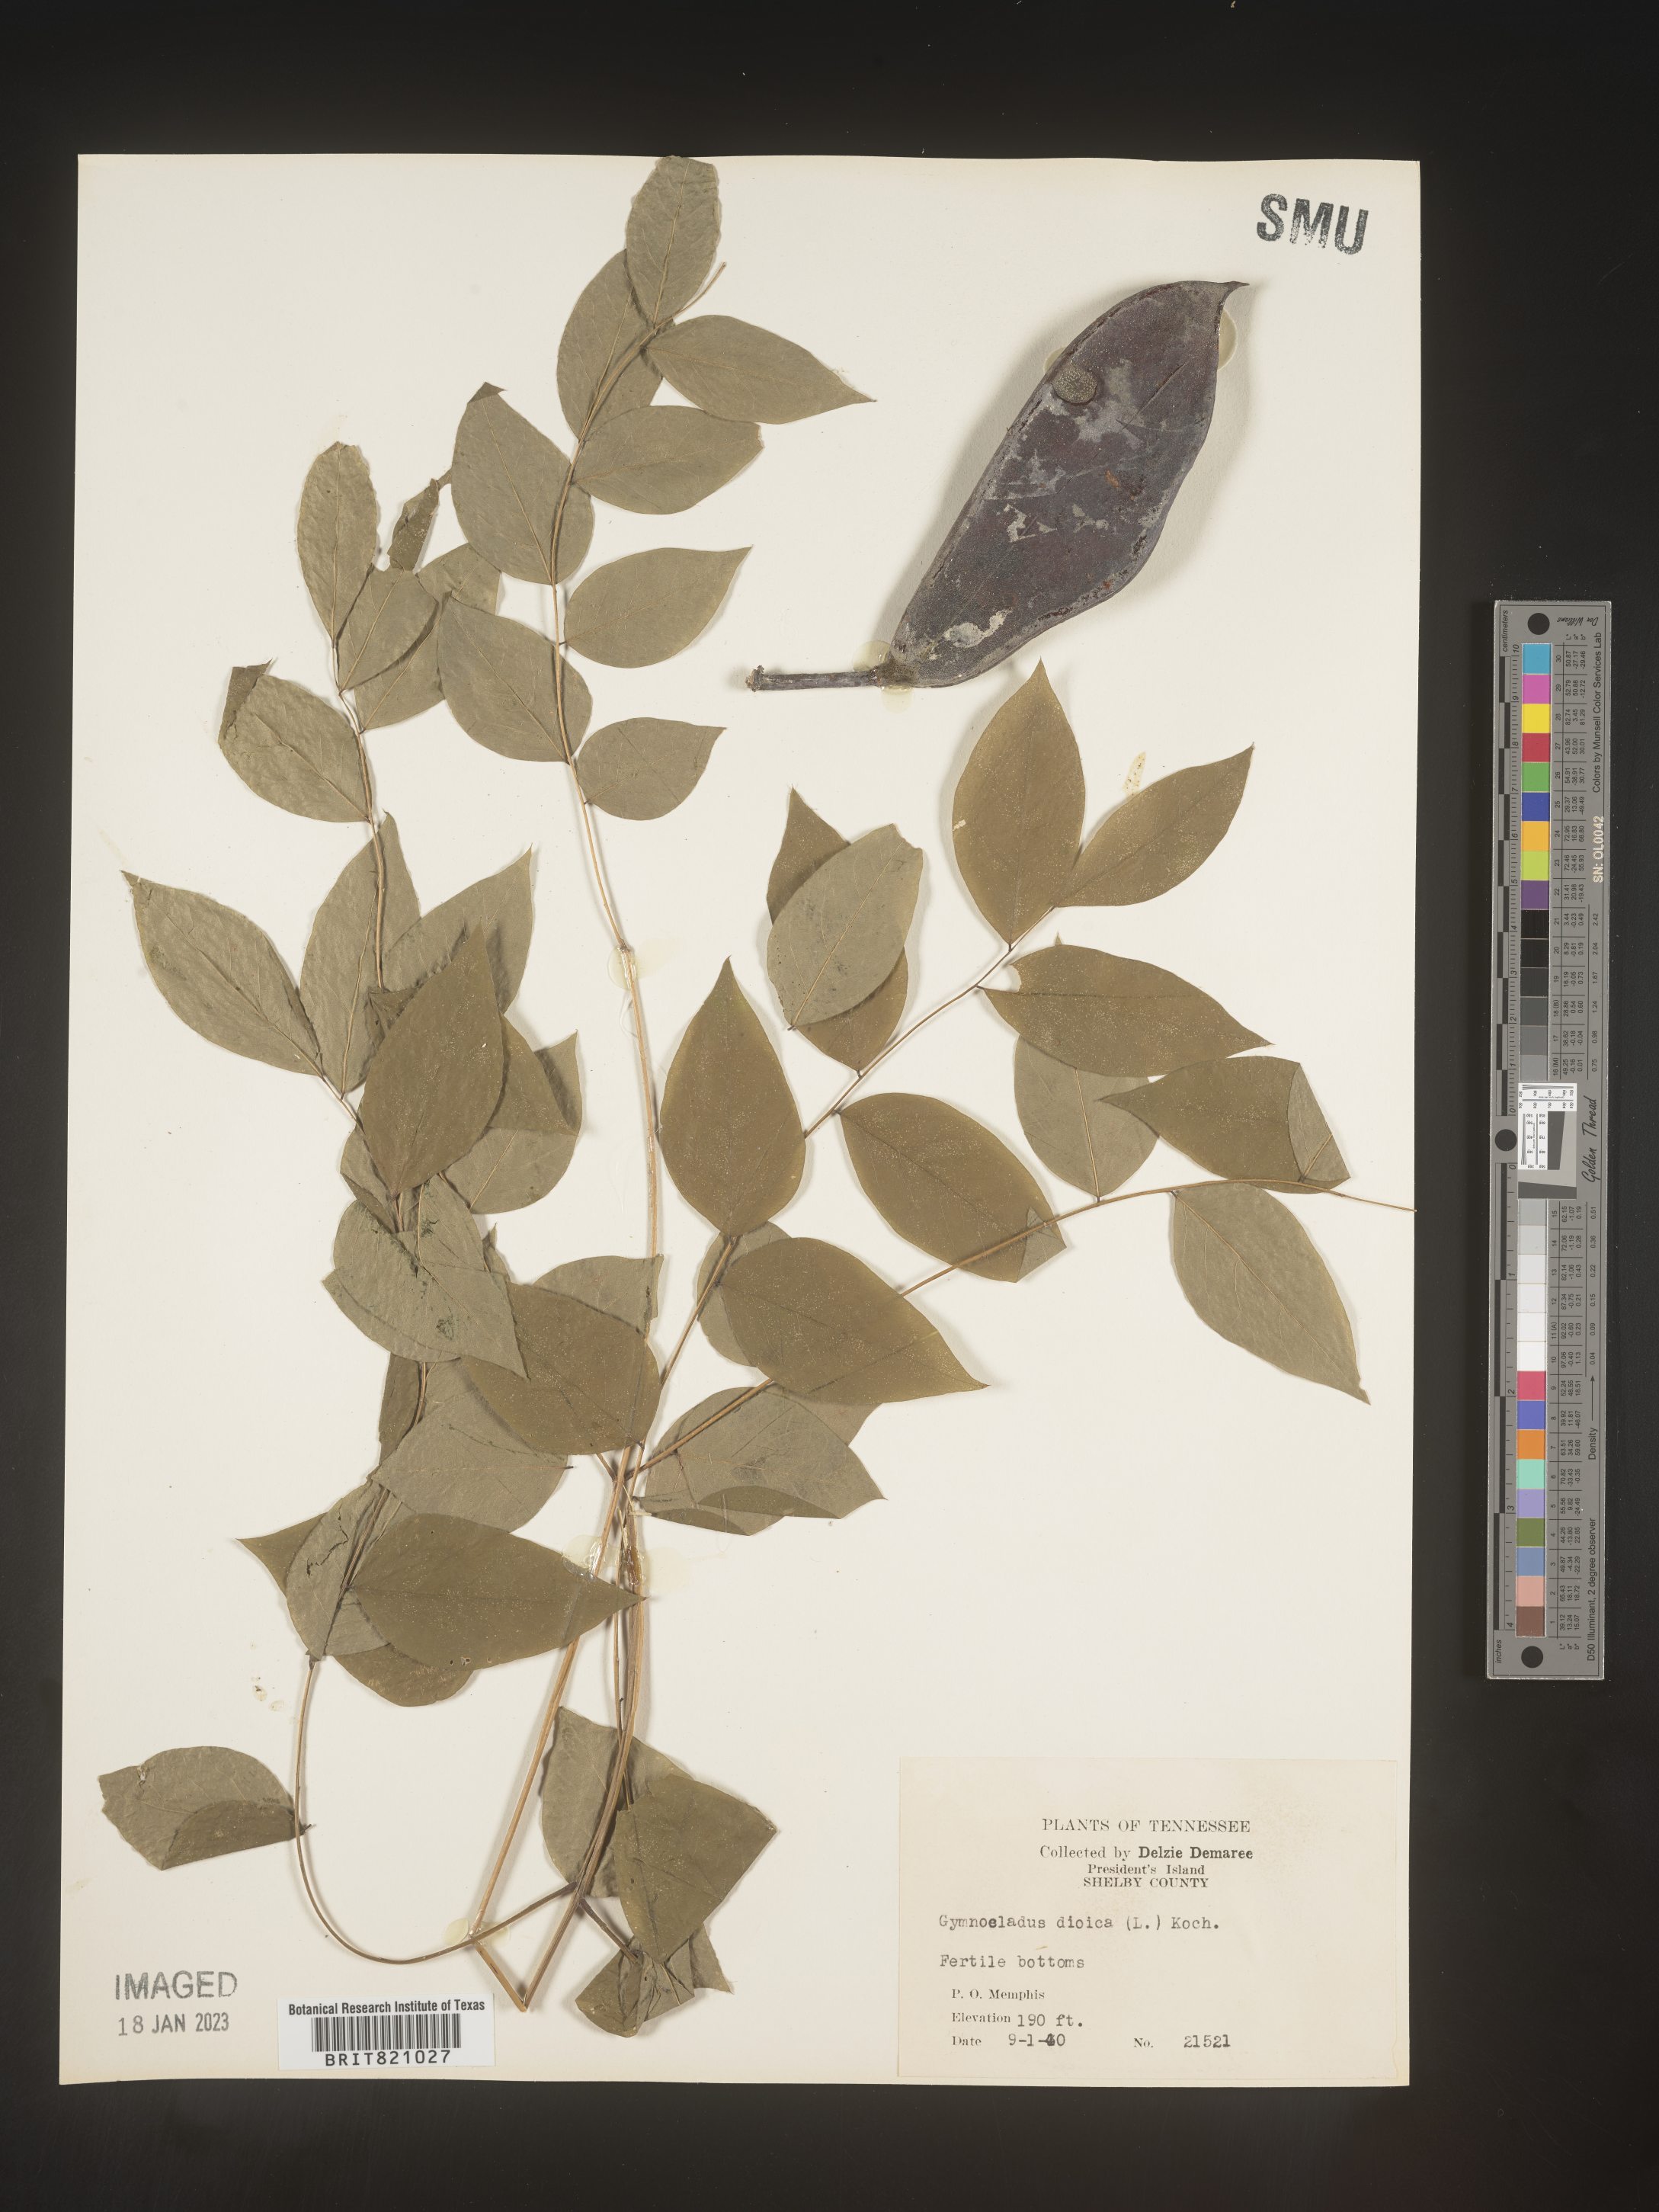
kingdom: Plantae
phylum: Tracheophyta
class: Magnoliopsida
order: Fabales
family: Fabaceae
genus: Gymnocladus
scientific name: Gymnocladus dioicus
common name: Kentucky coffee-tree
